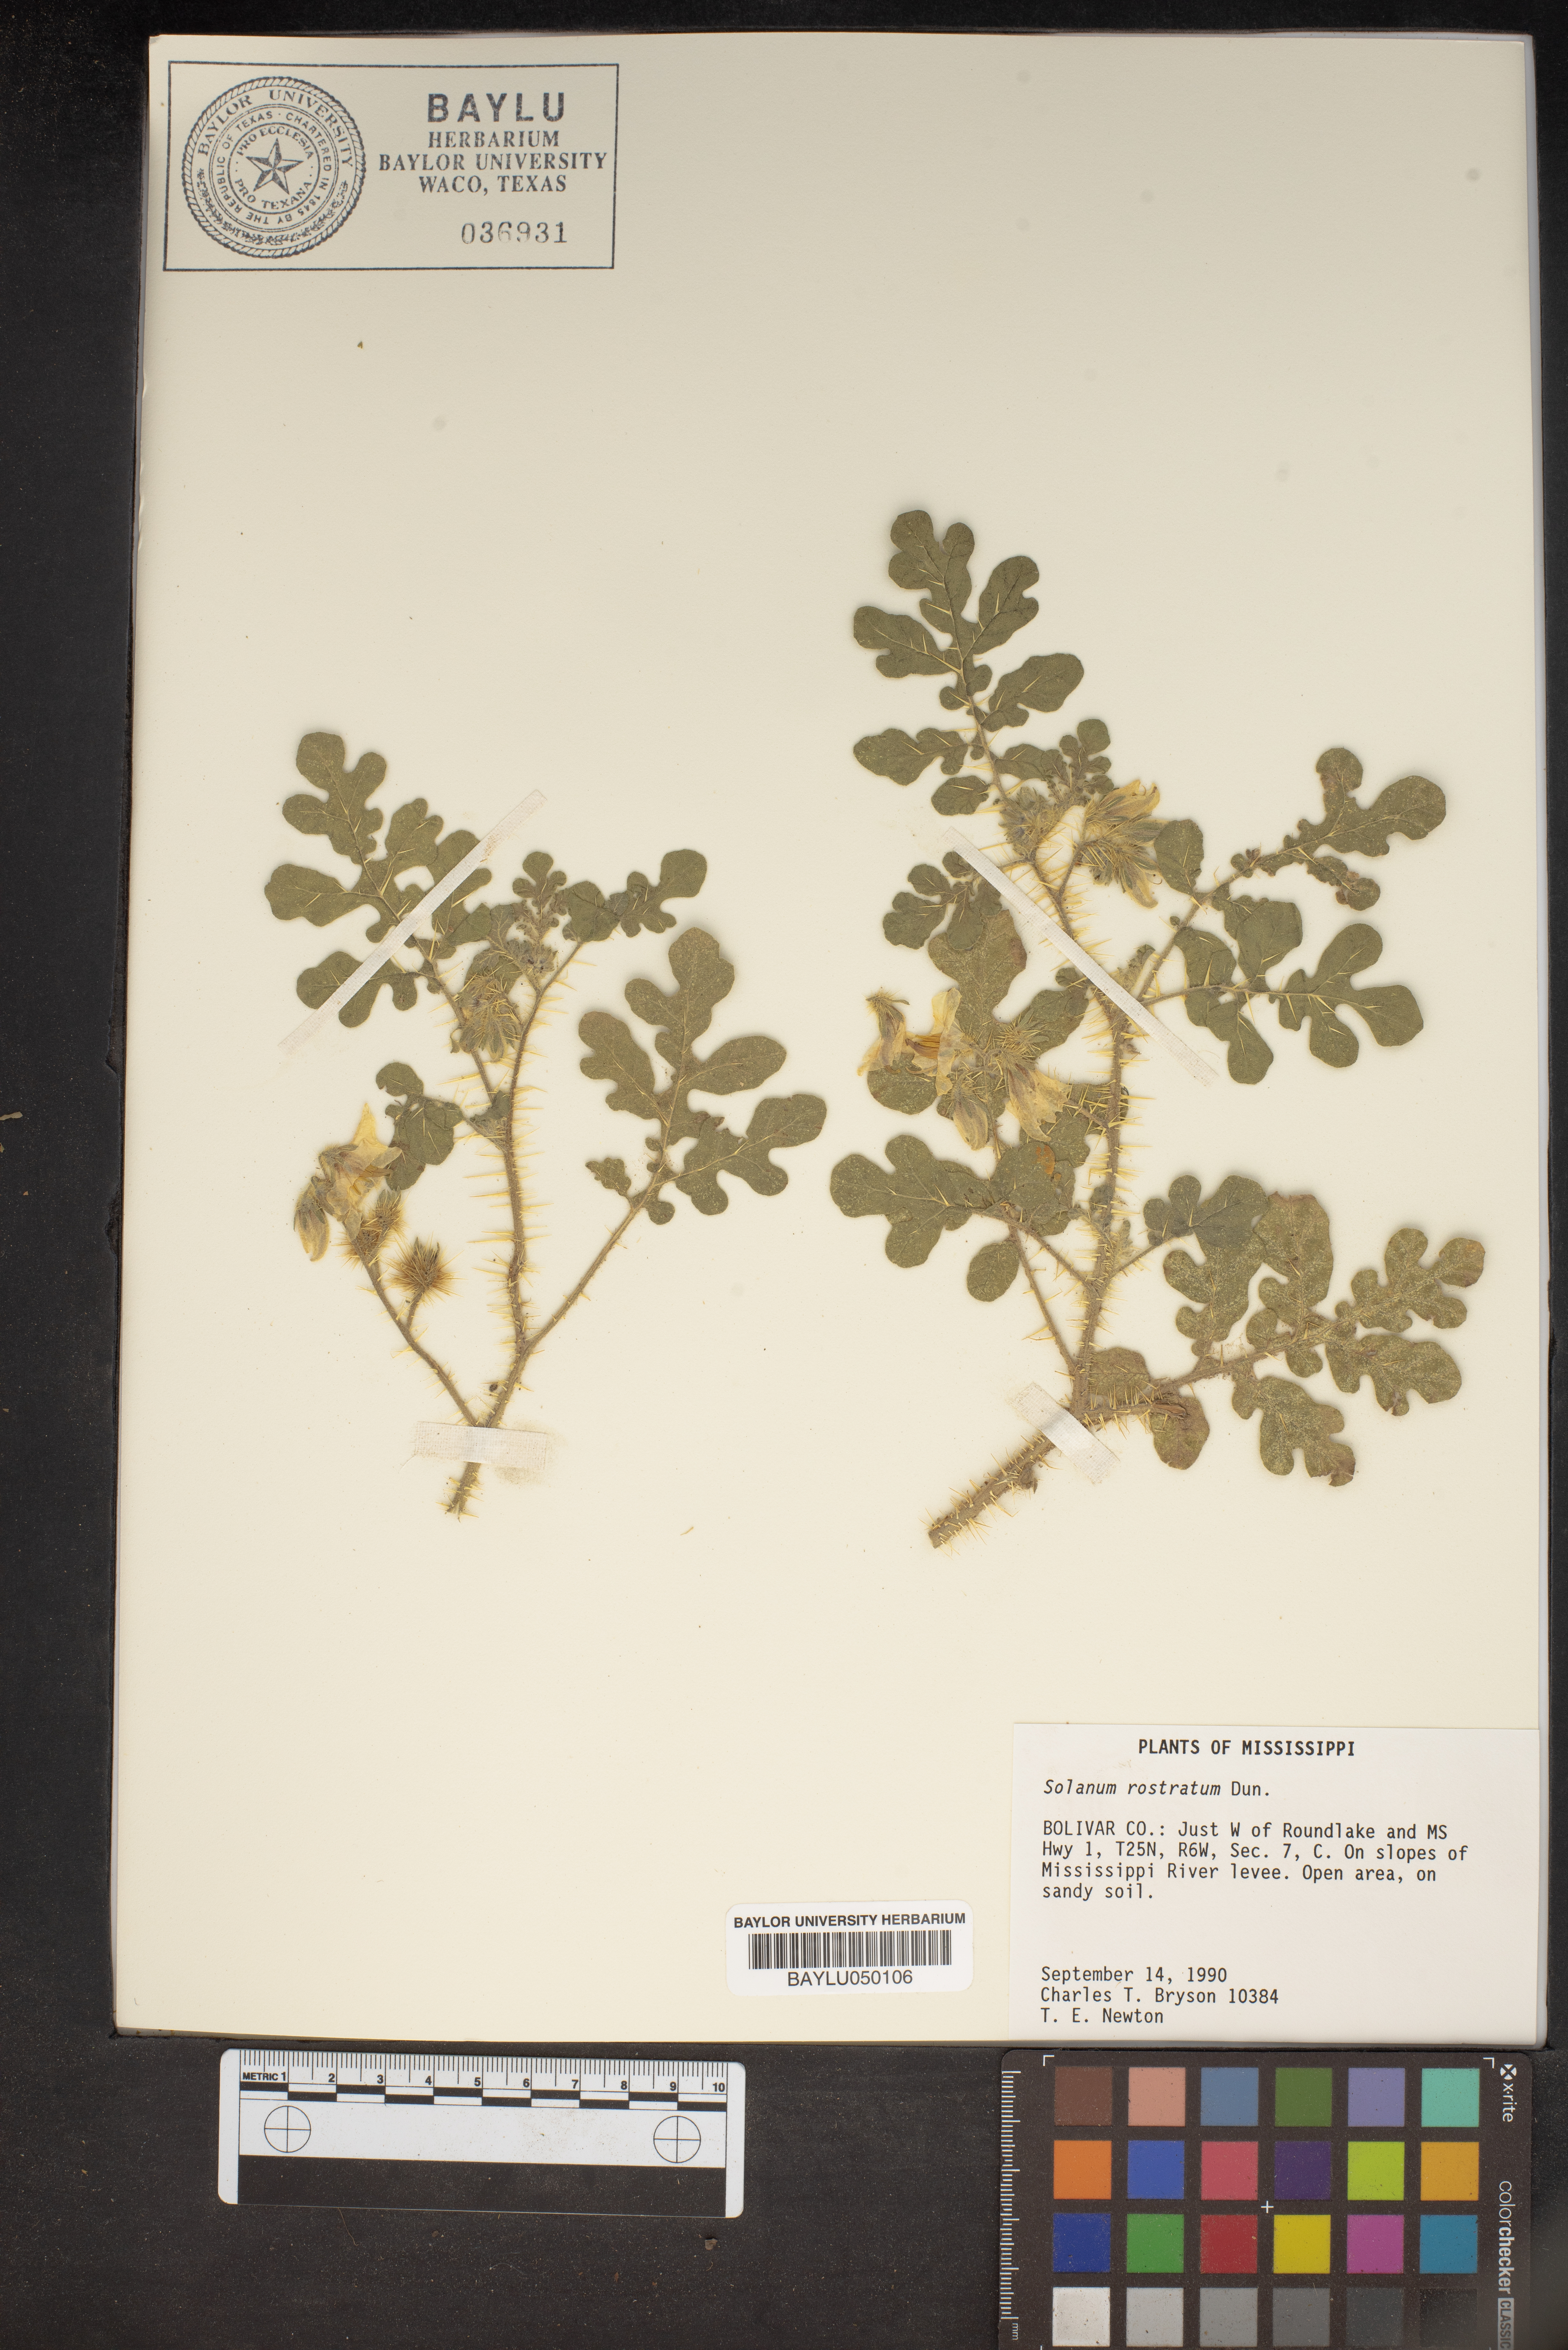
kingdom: Plantae
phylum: Tracheophyta
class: Magnoliopsida
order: Solanales
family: Solanaceae
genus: Solanum
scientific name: Solanum angustifolium
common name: Buffalobur nightshade
